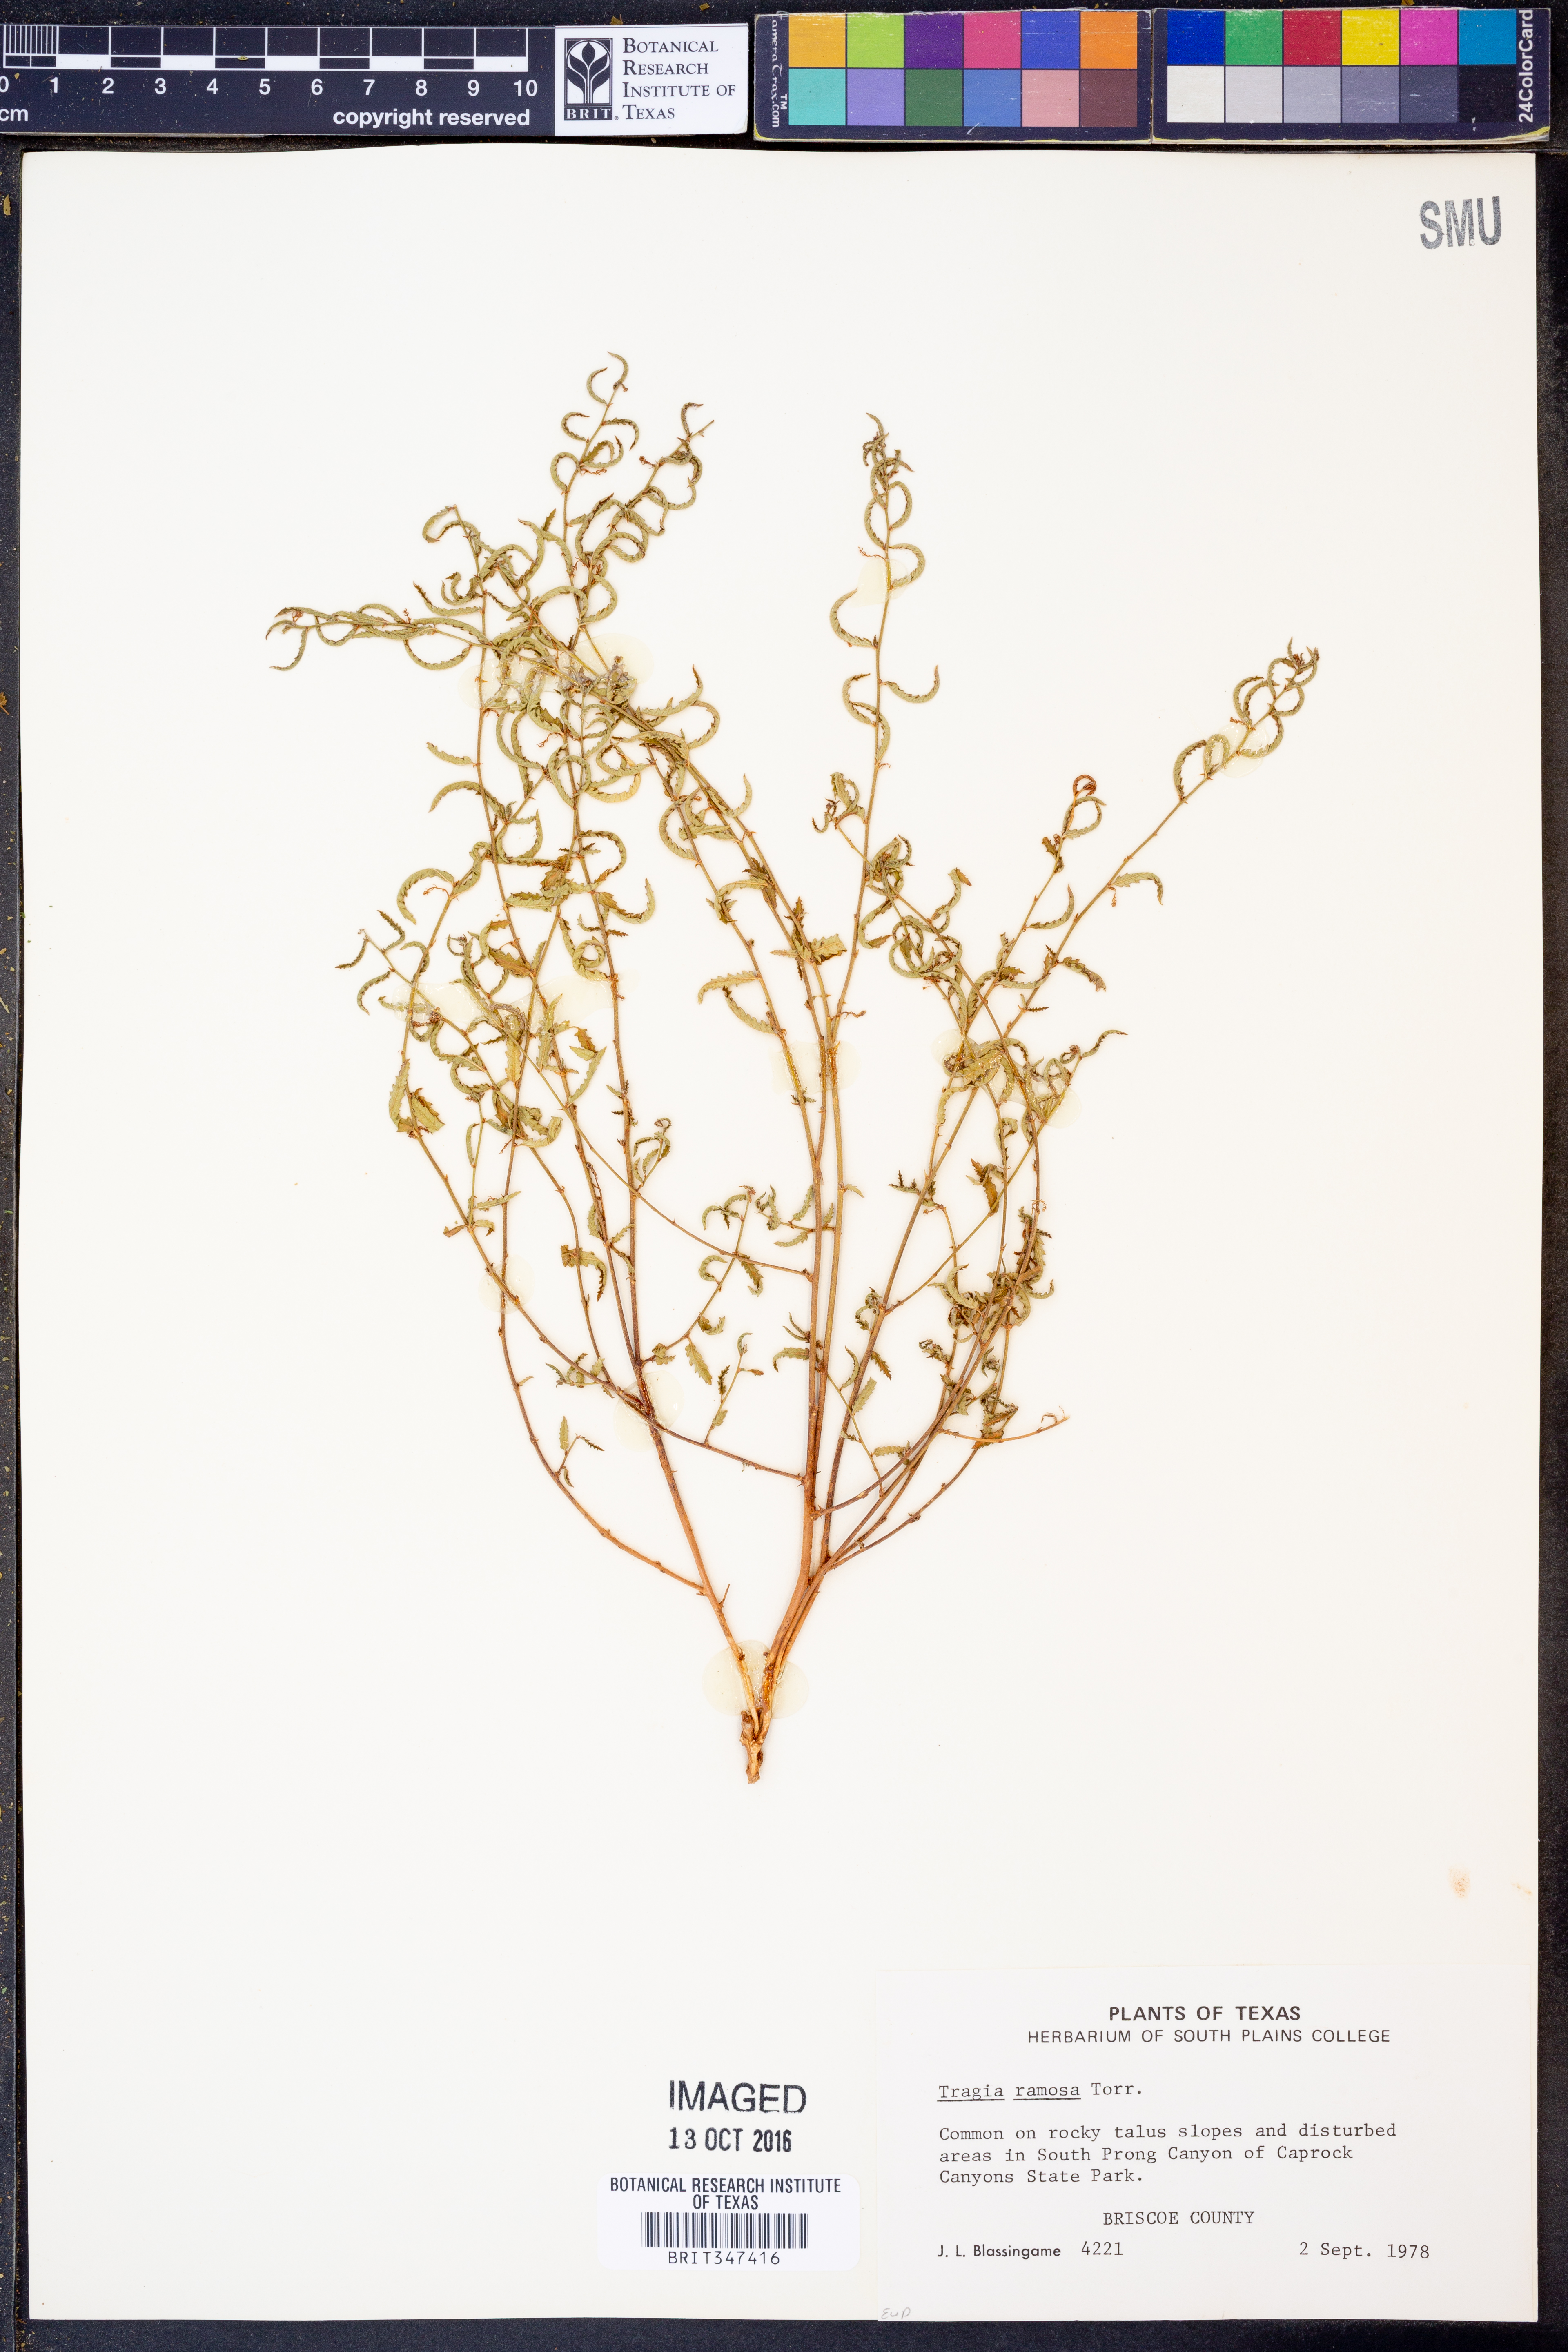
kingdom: Plantae
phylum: Tracheophyta
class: Magnoliopsida
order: Malpighiales
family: Euphorbiaceae
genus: Tragia
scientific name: Tragia ramosa
